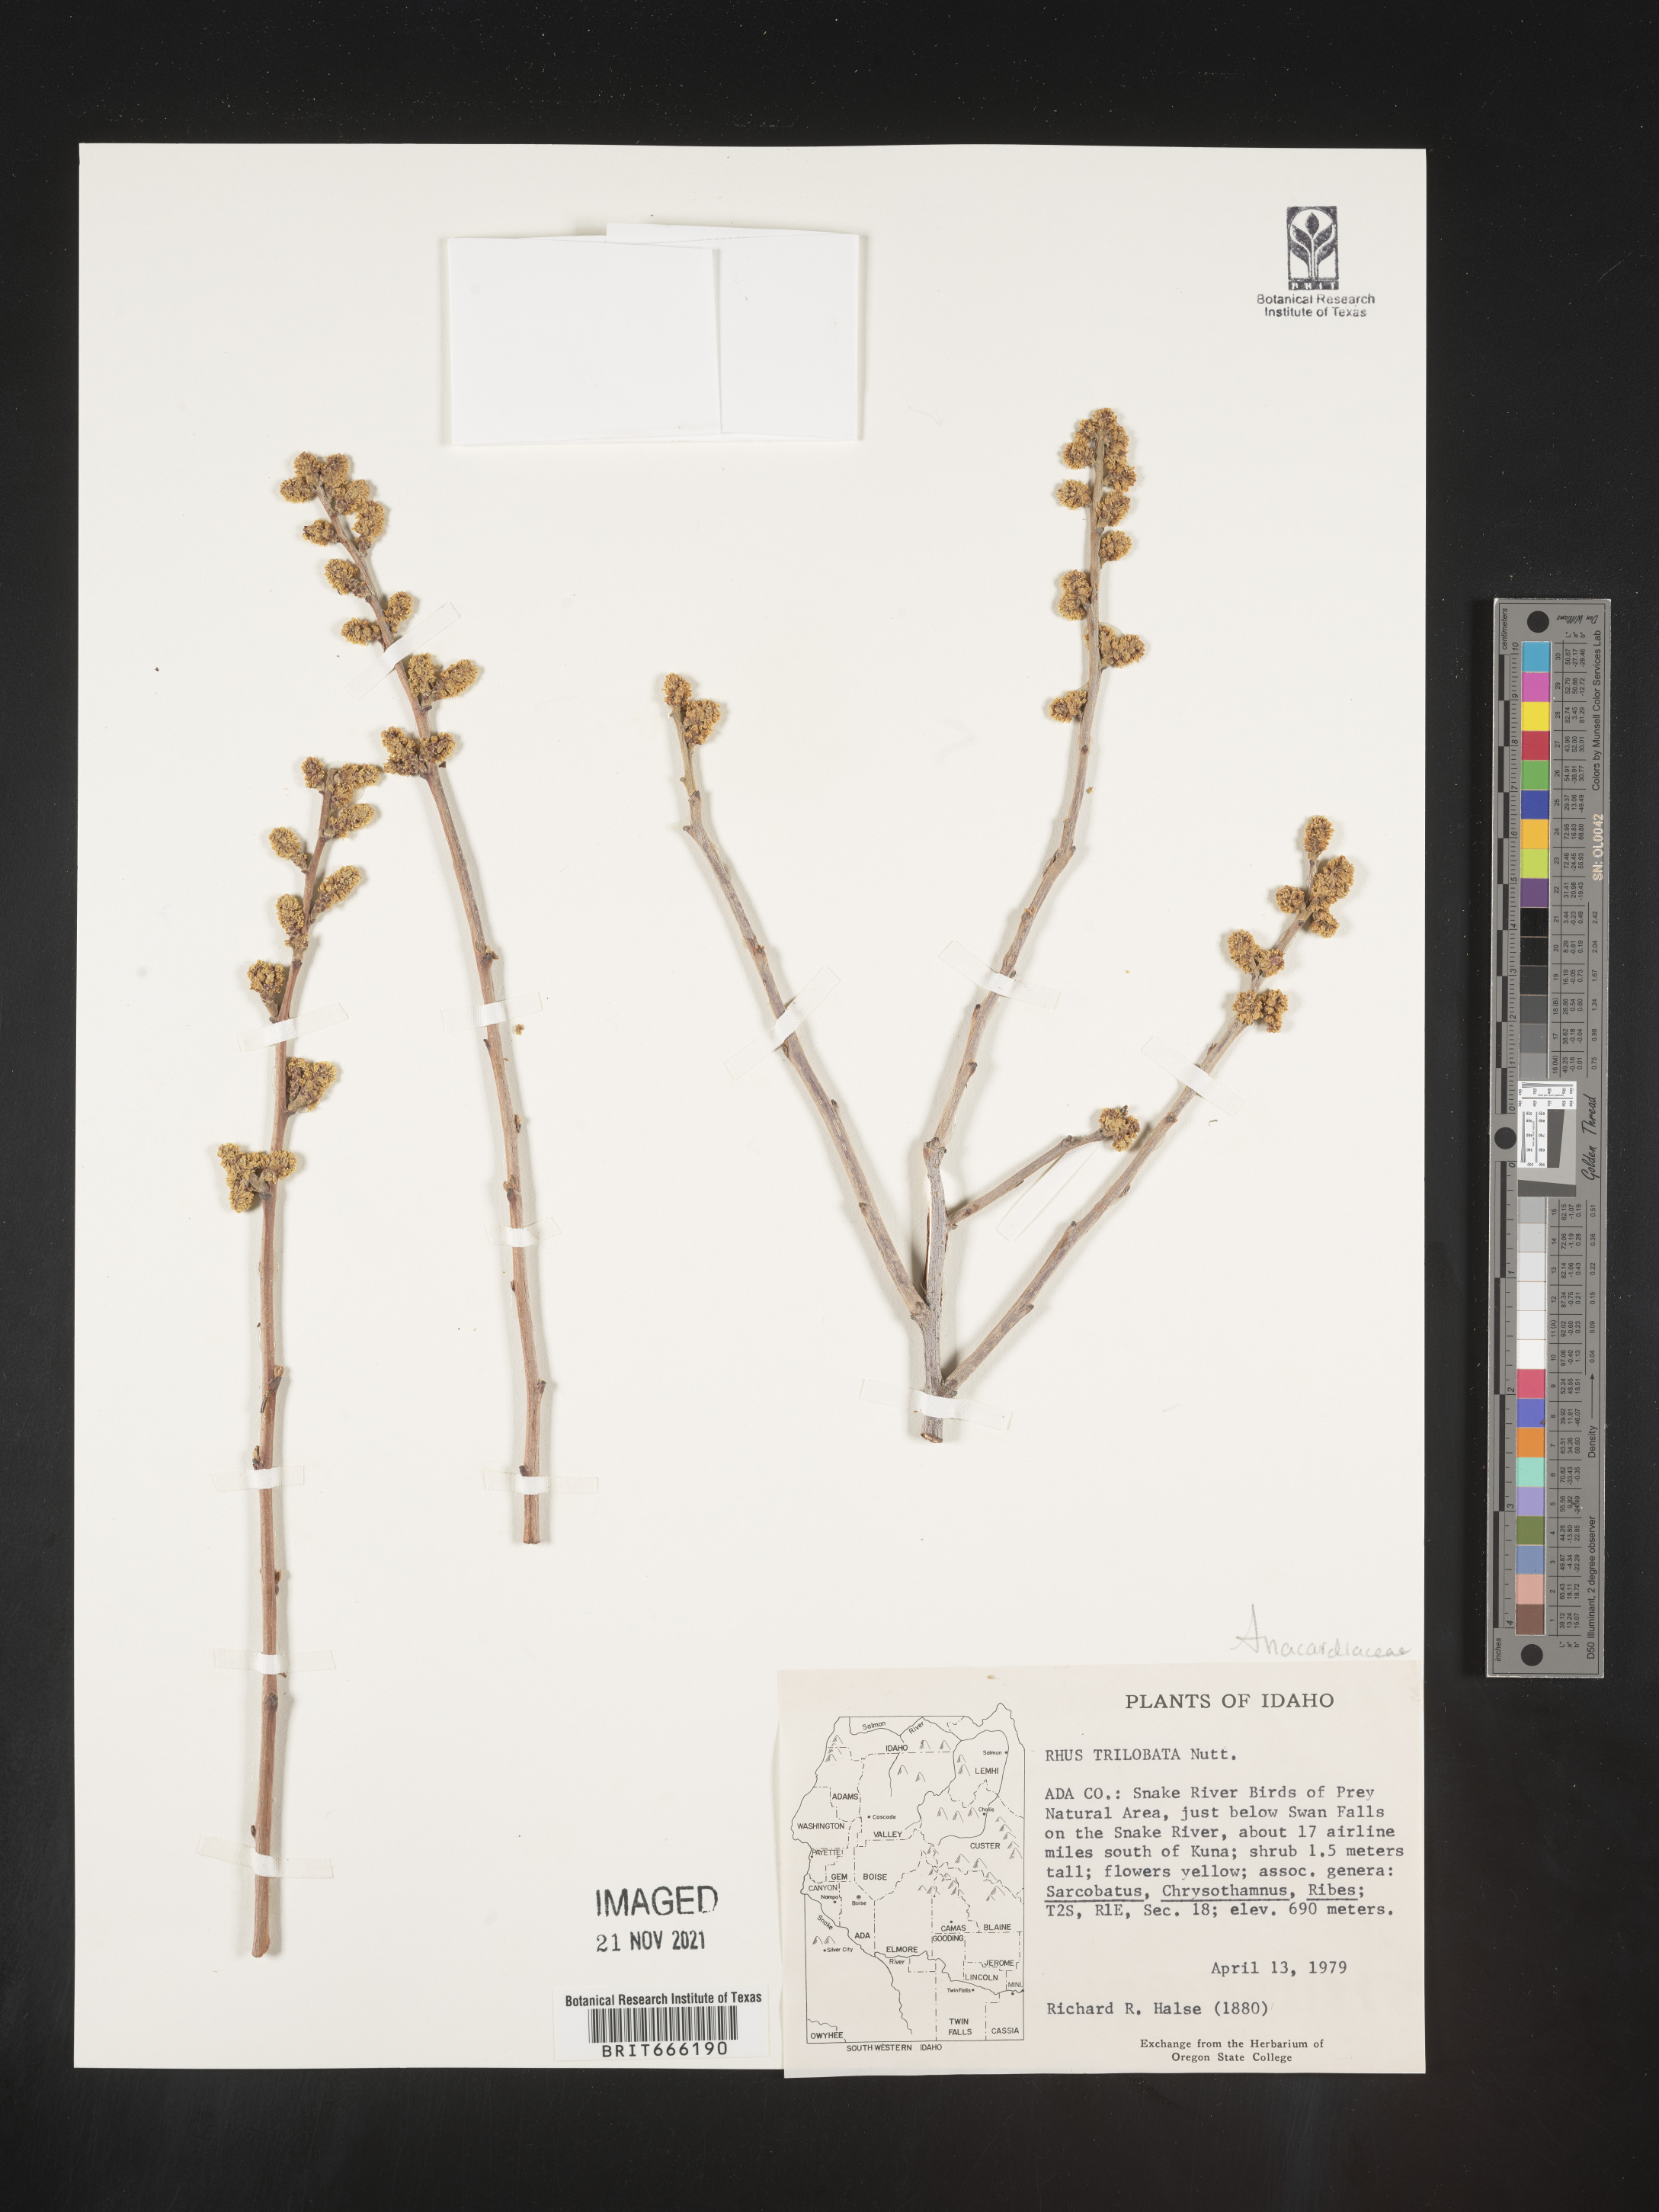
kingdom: Plantae
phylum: Tracheophyta
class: Magnoliopsida
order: Sapindales
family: Anacardiaceae
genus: Rhus
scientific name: Rhus trilobata
